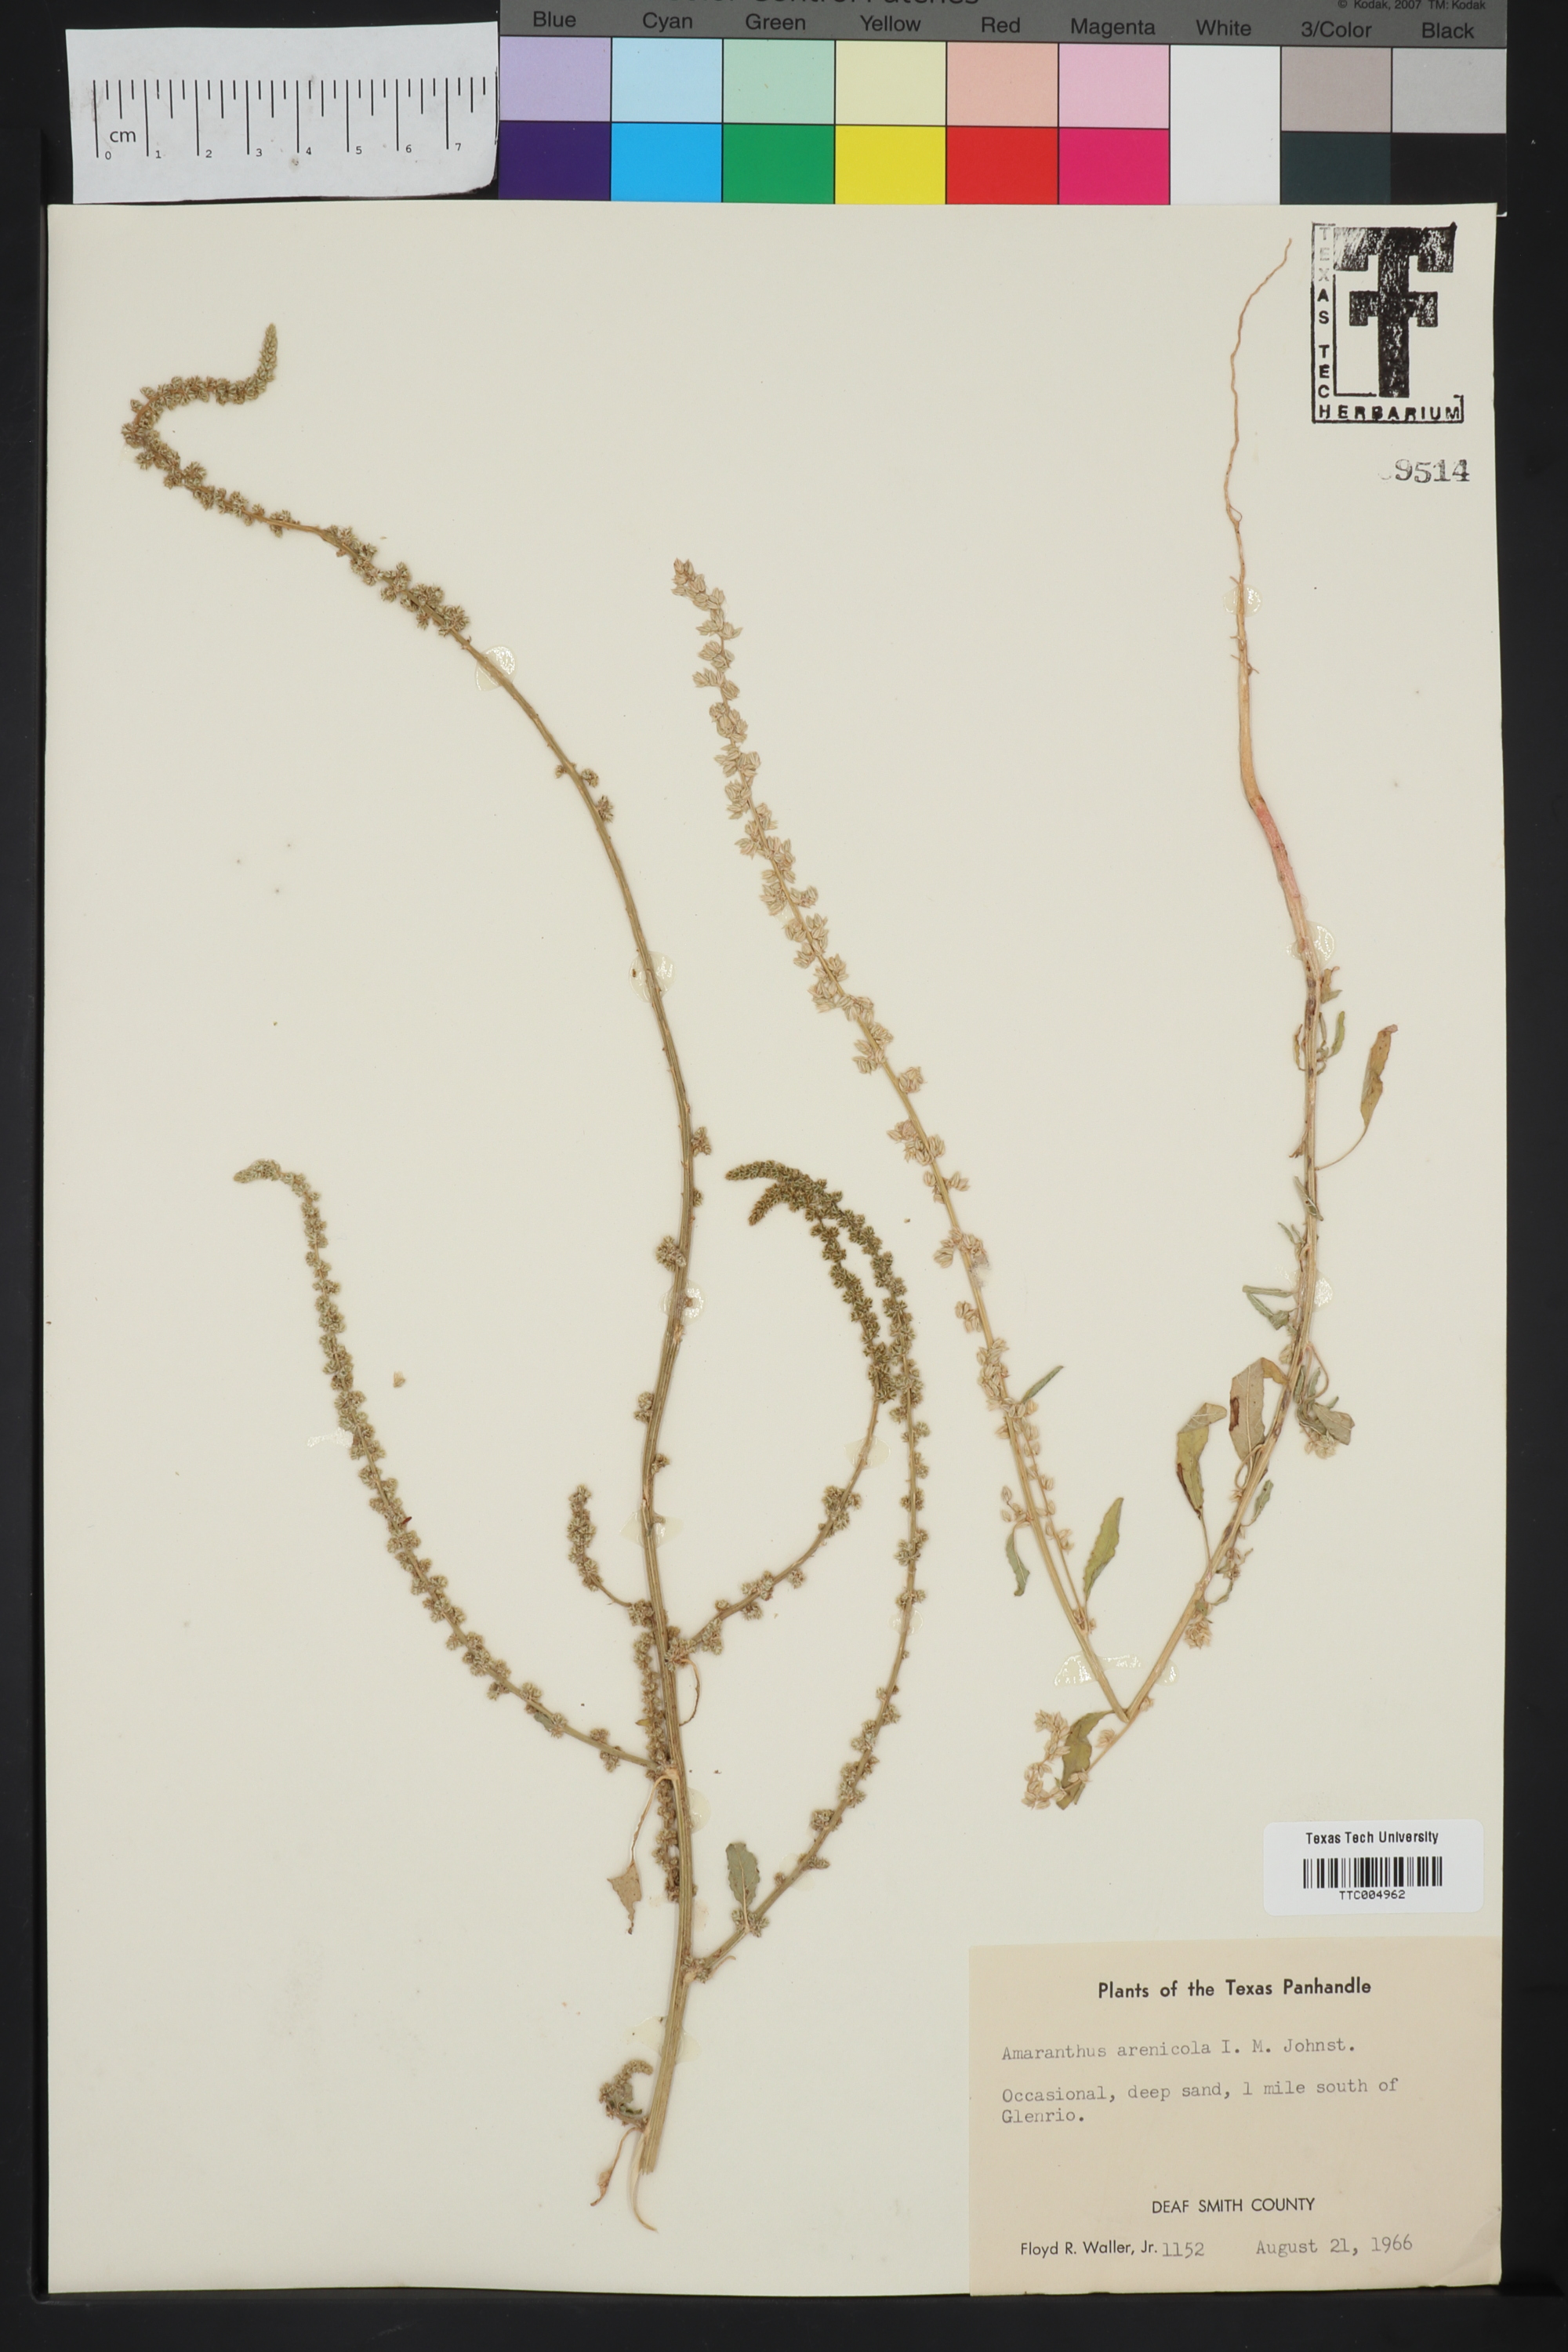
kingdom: Plantae
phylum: Tracheophyta
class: Magnoliopsida
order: Caryophyllales
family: Amaranthaceae
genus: Amaranthus
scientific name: Amaranthus arenicola
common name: Sandhills amaranth
